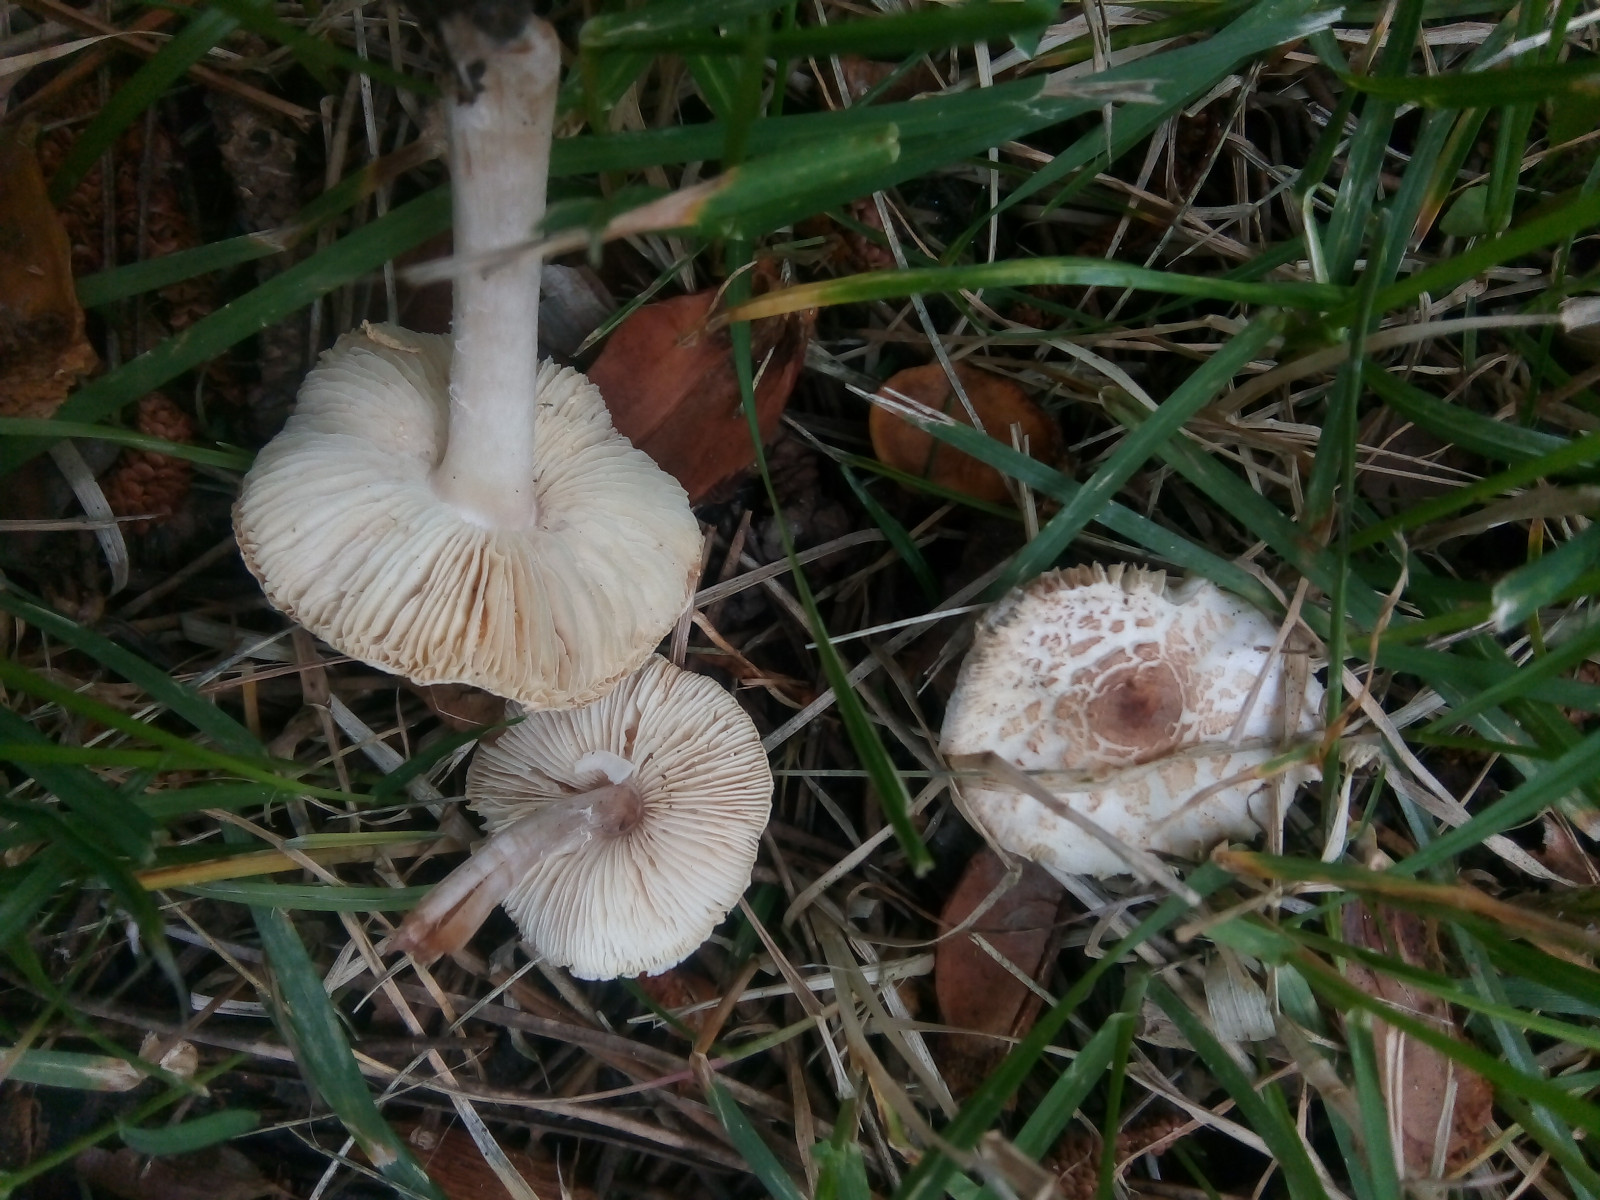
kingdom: Fungi
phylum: Basidiomycota
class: Agaricomycetes
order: Agaricales
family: Agaricaceae
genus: Lepiota
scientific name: Lepiota cristata
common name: stinkende parasolhat
